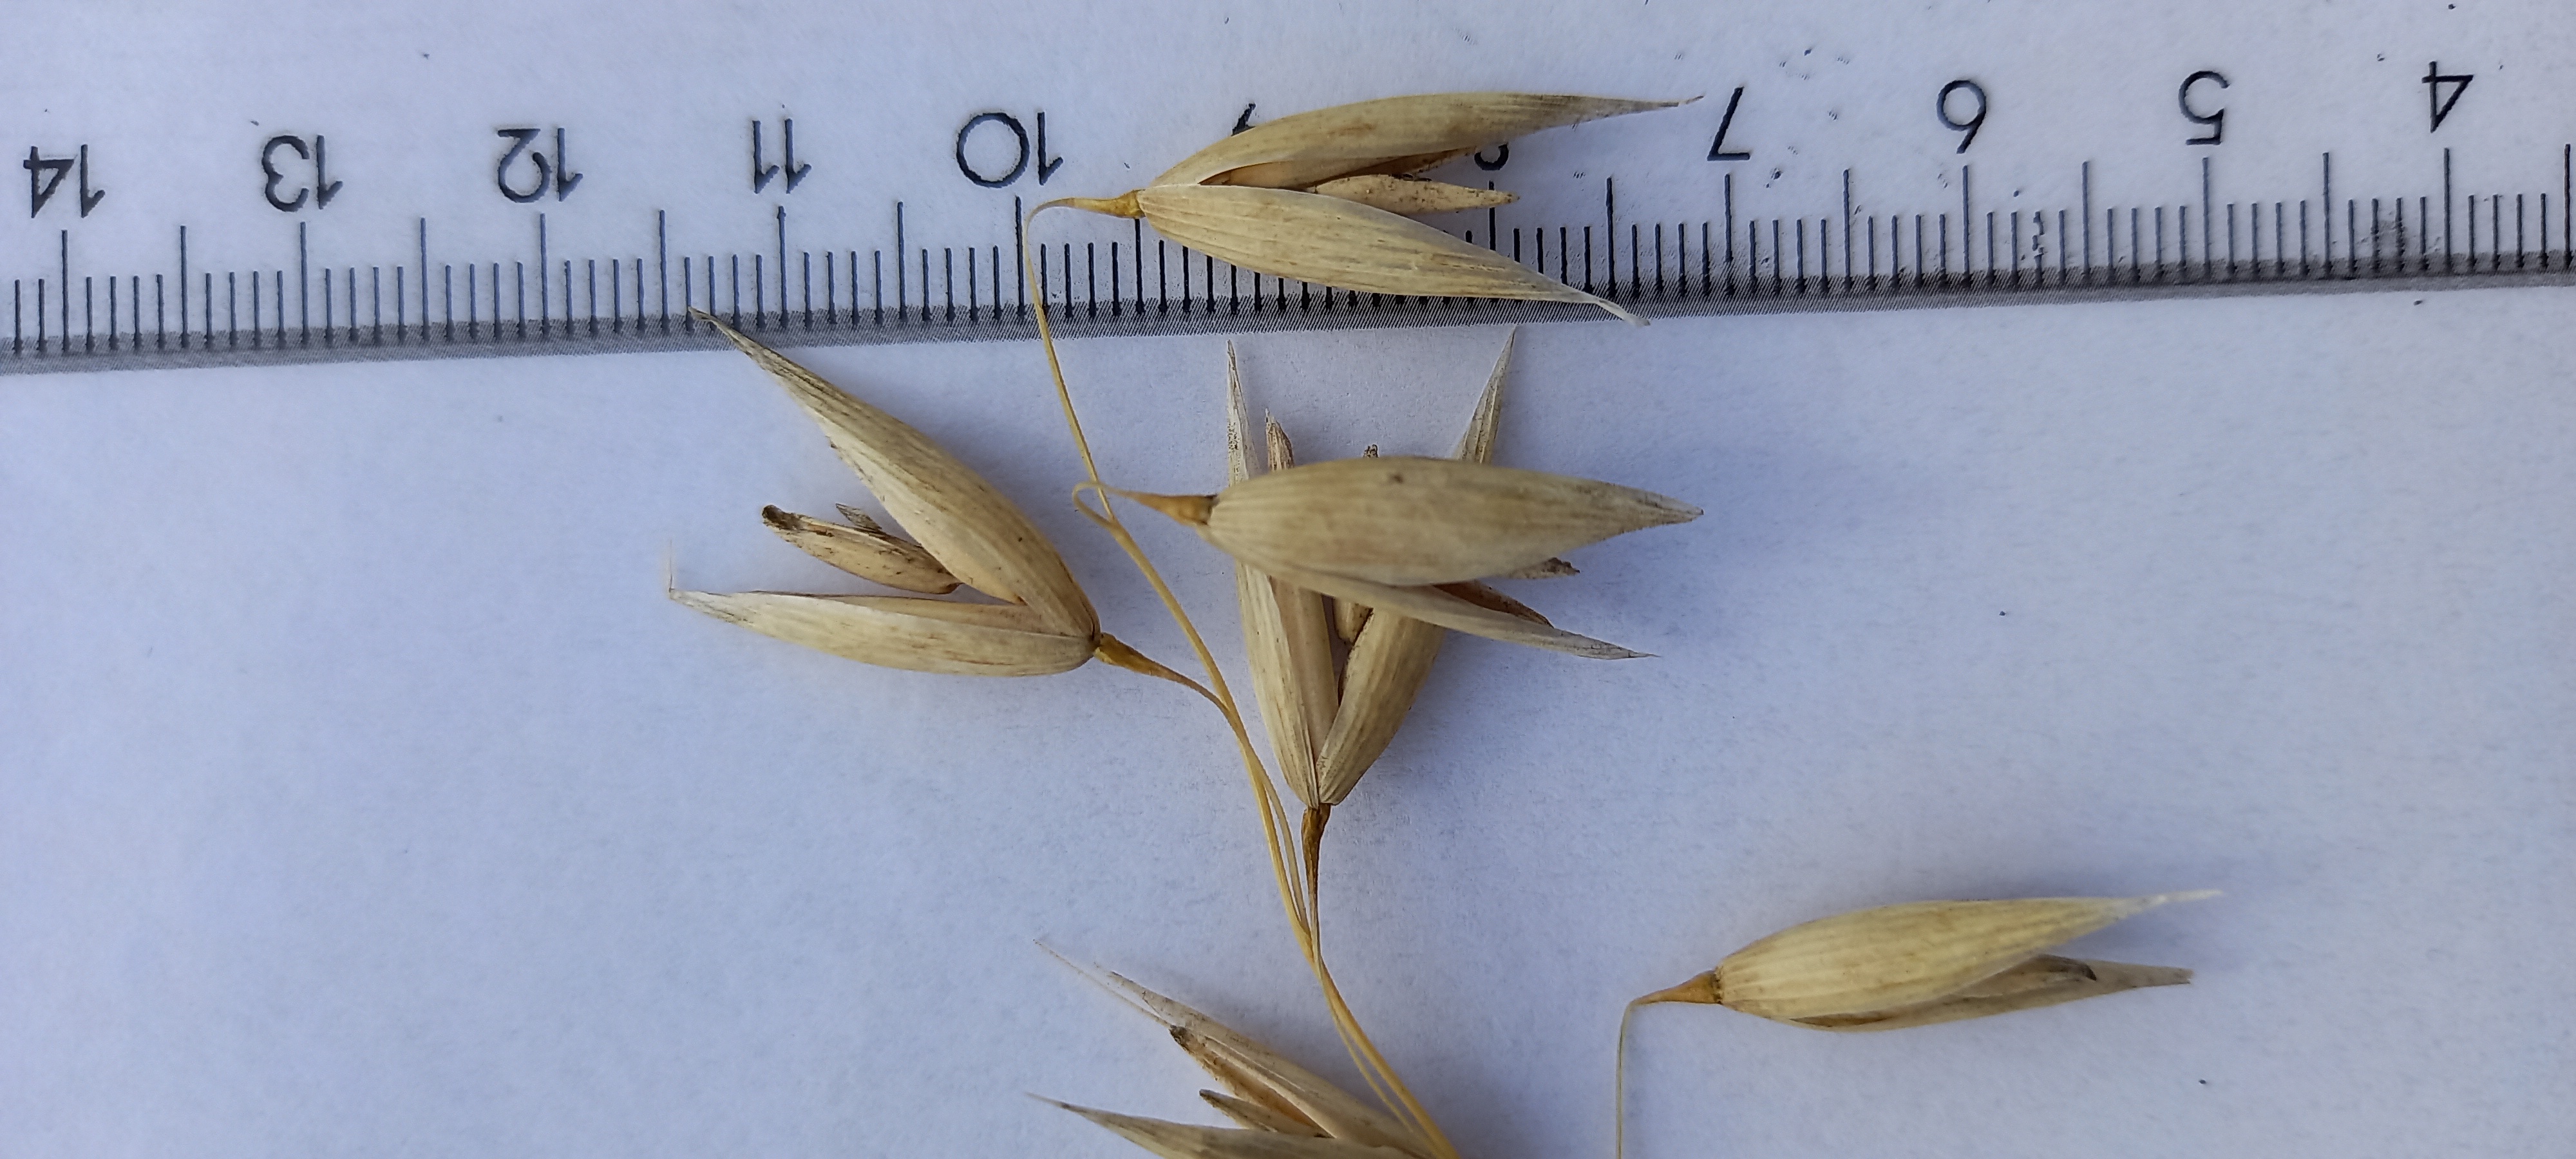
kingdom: Plantae
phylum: Tracheophyta
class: Liliopsida
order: Poales
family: Poaceae
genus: Avena
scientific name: Avena sativa
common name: Oat
